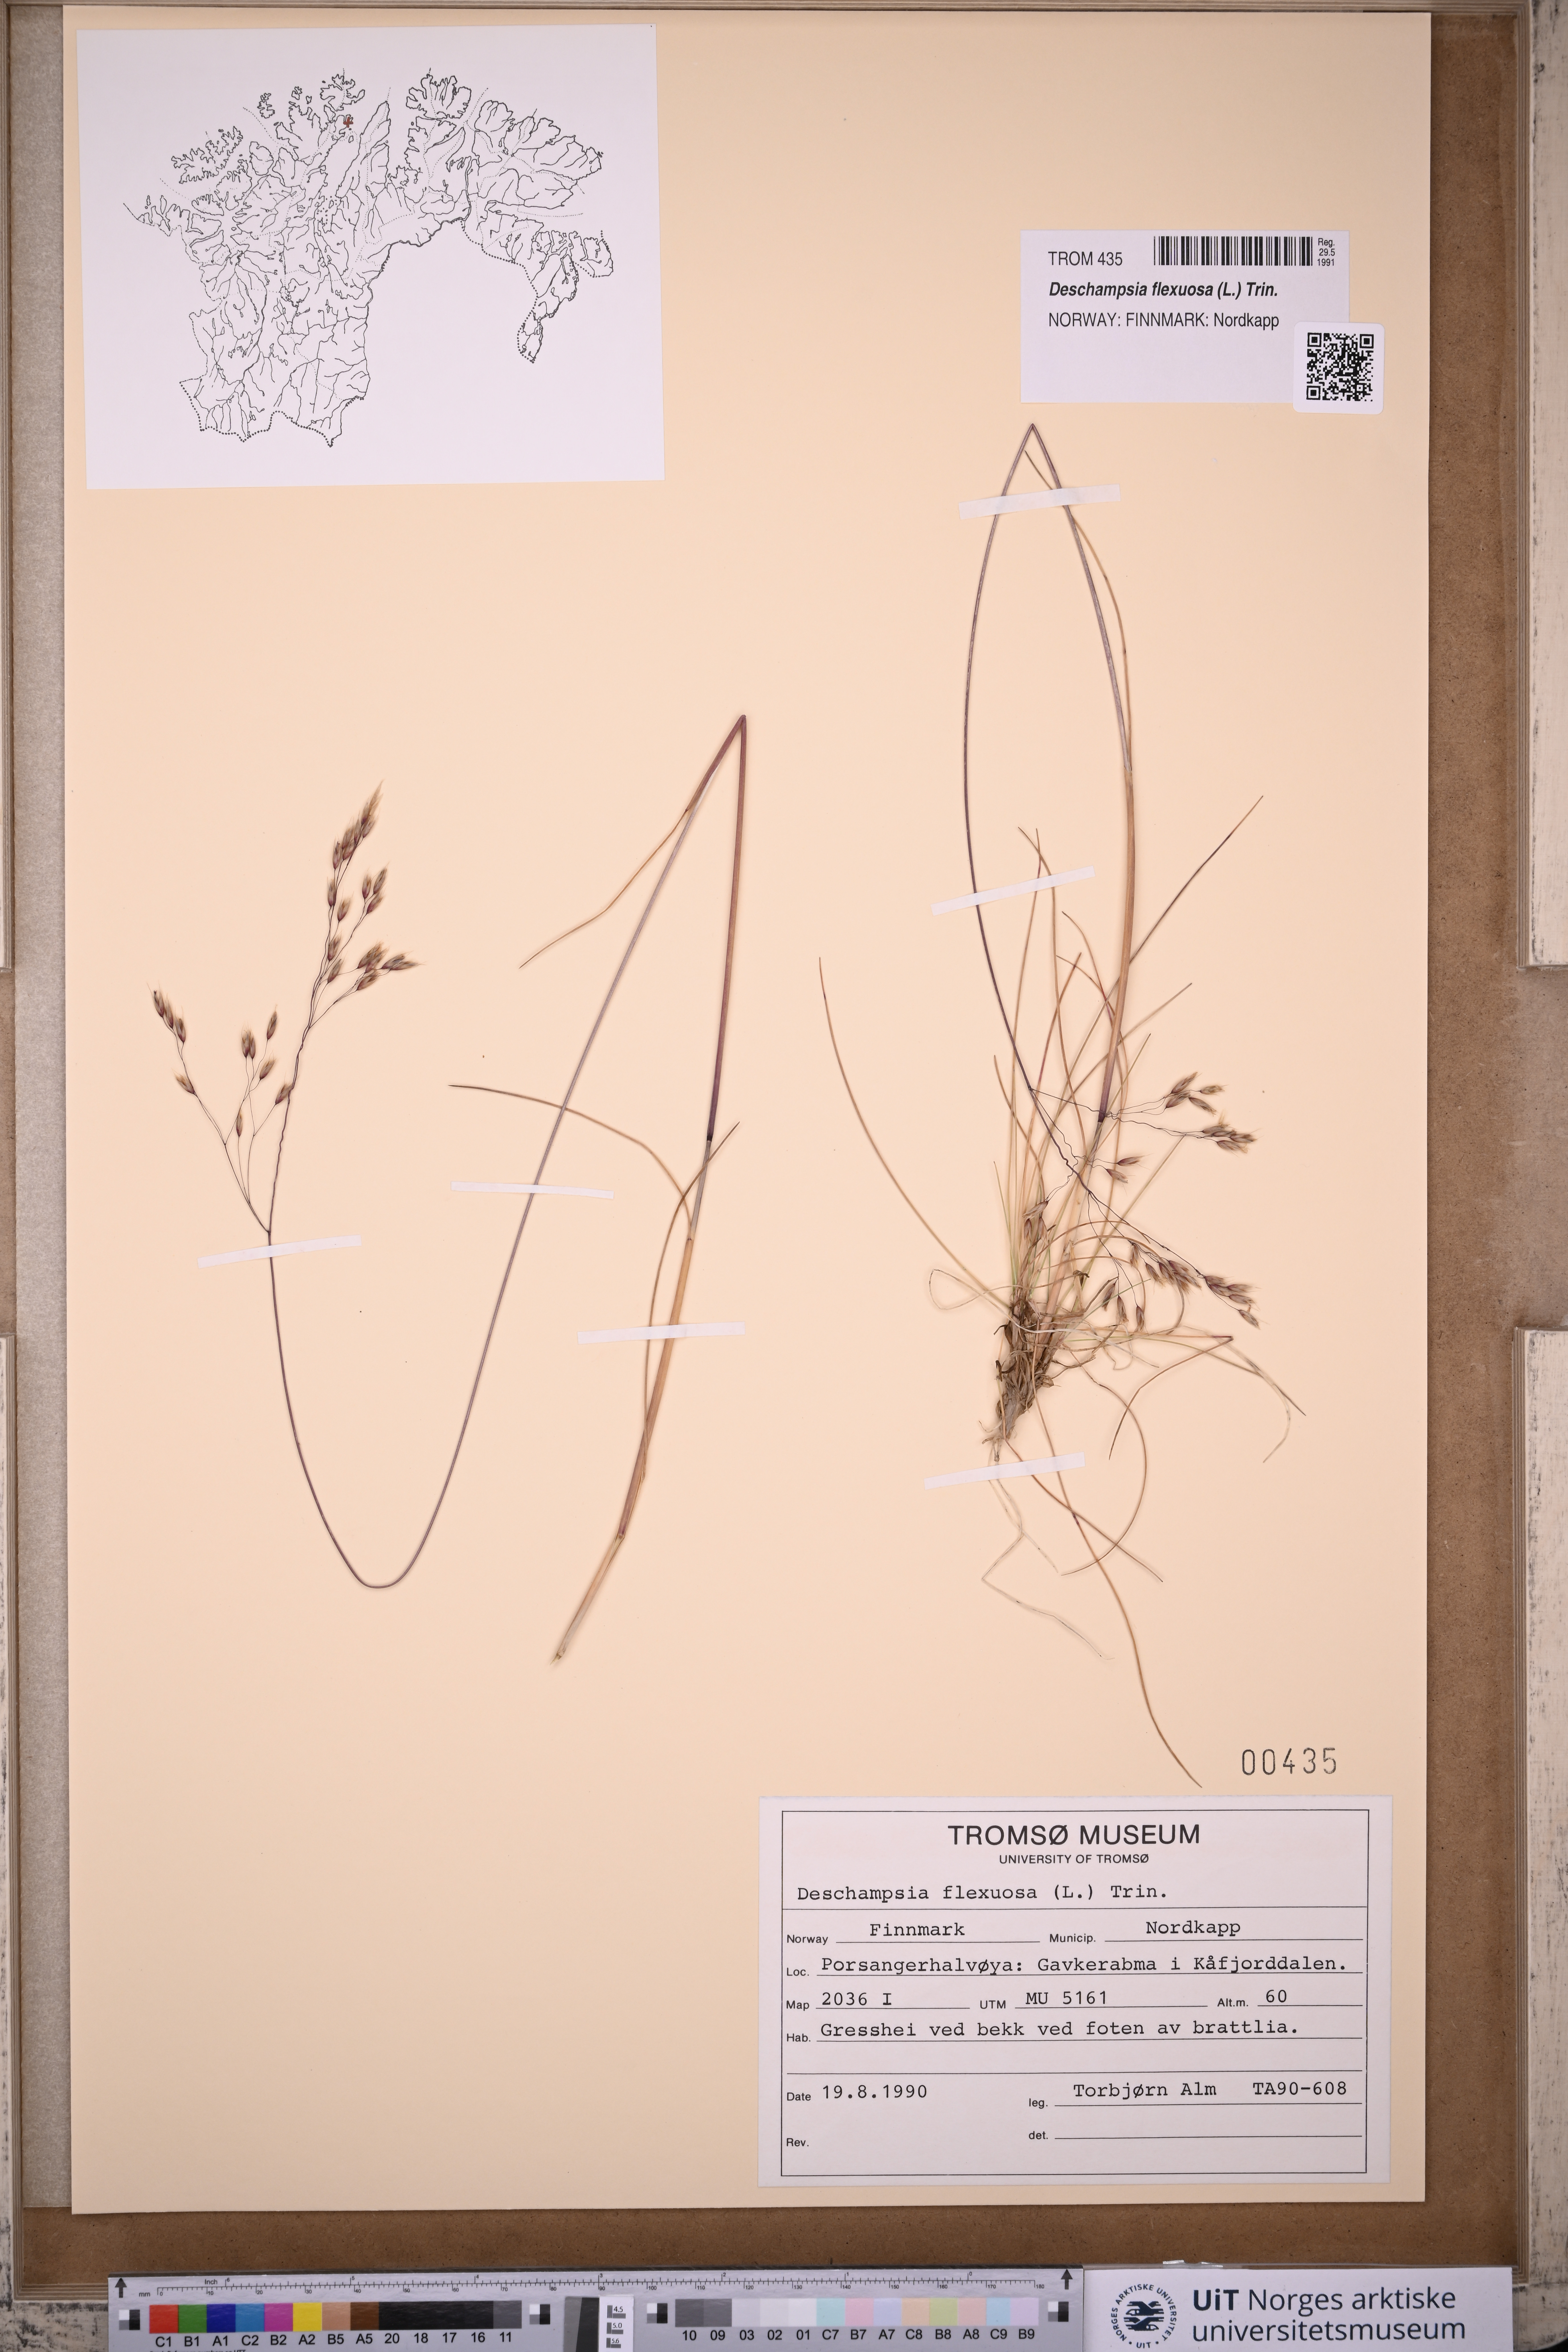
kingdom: Plantae
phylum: Tracheophyta
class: Liliopsida
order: Poales
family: Poaceae
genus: Avenella
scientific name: Avenella flexuosa
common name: Wavy hairgrass
